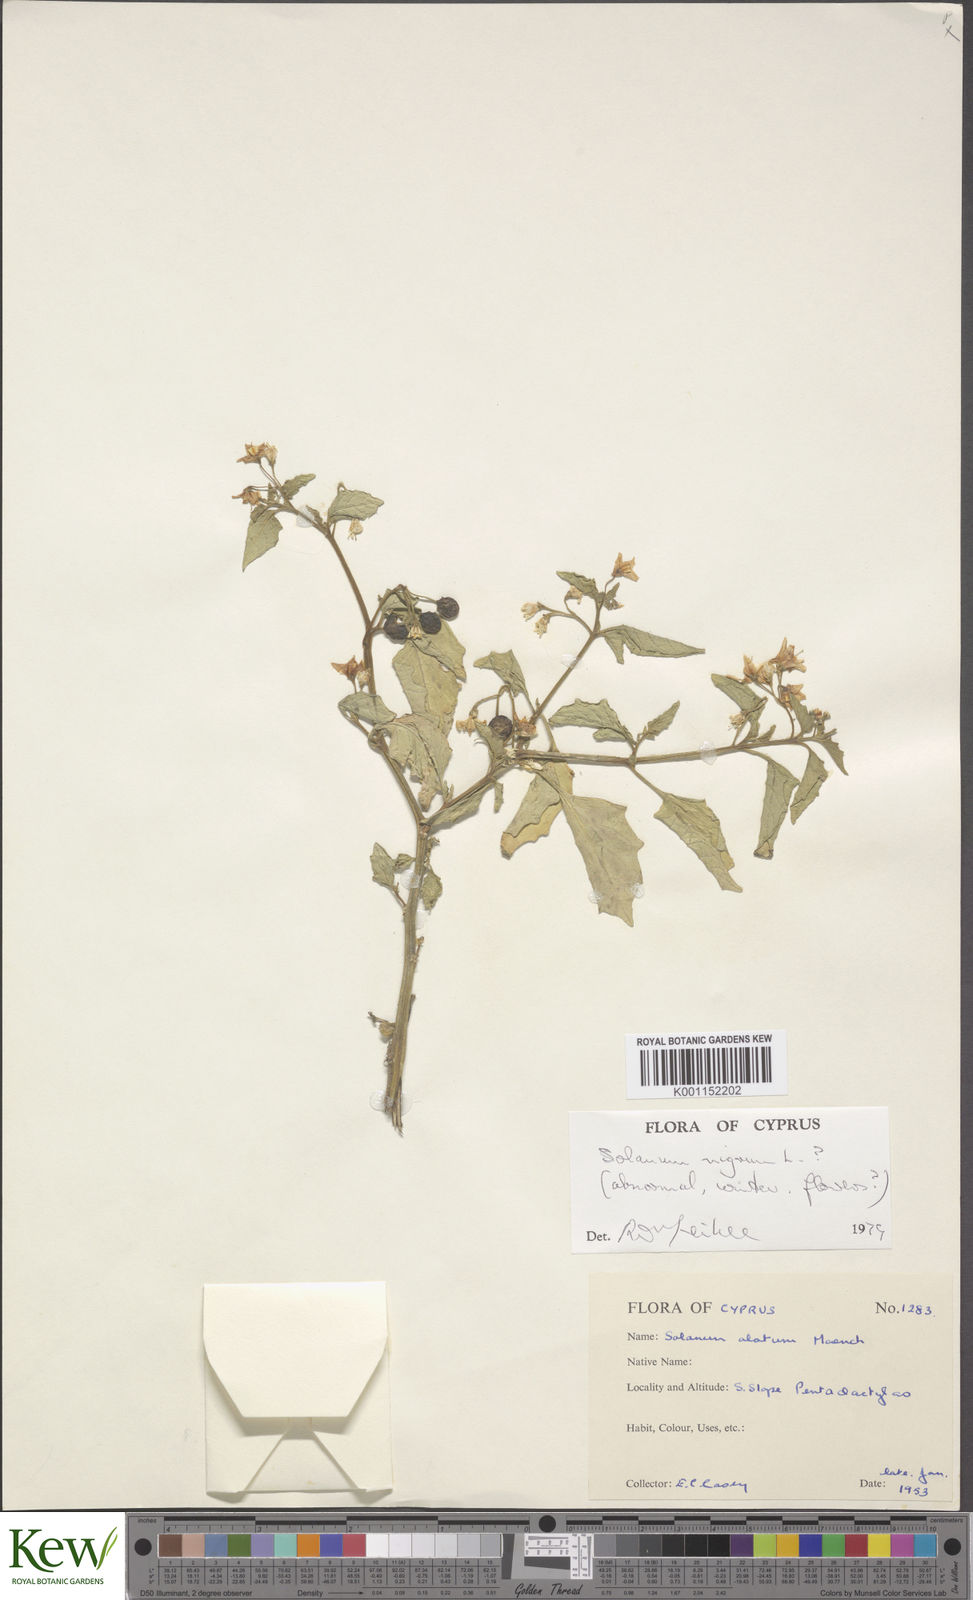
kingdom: Plantae
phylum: Tracheophyta
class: Magnoliopsida
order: Solanales
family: Solanaceae
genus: Solanum
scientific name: Solanum villosum
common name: Red nightshade
